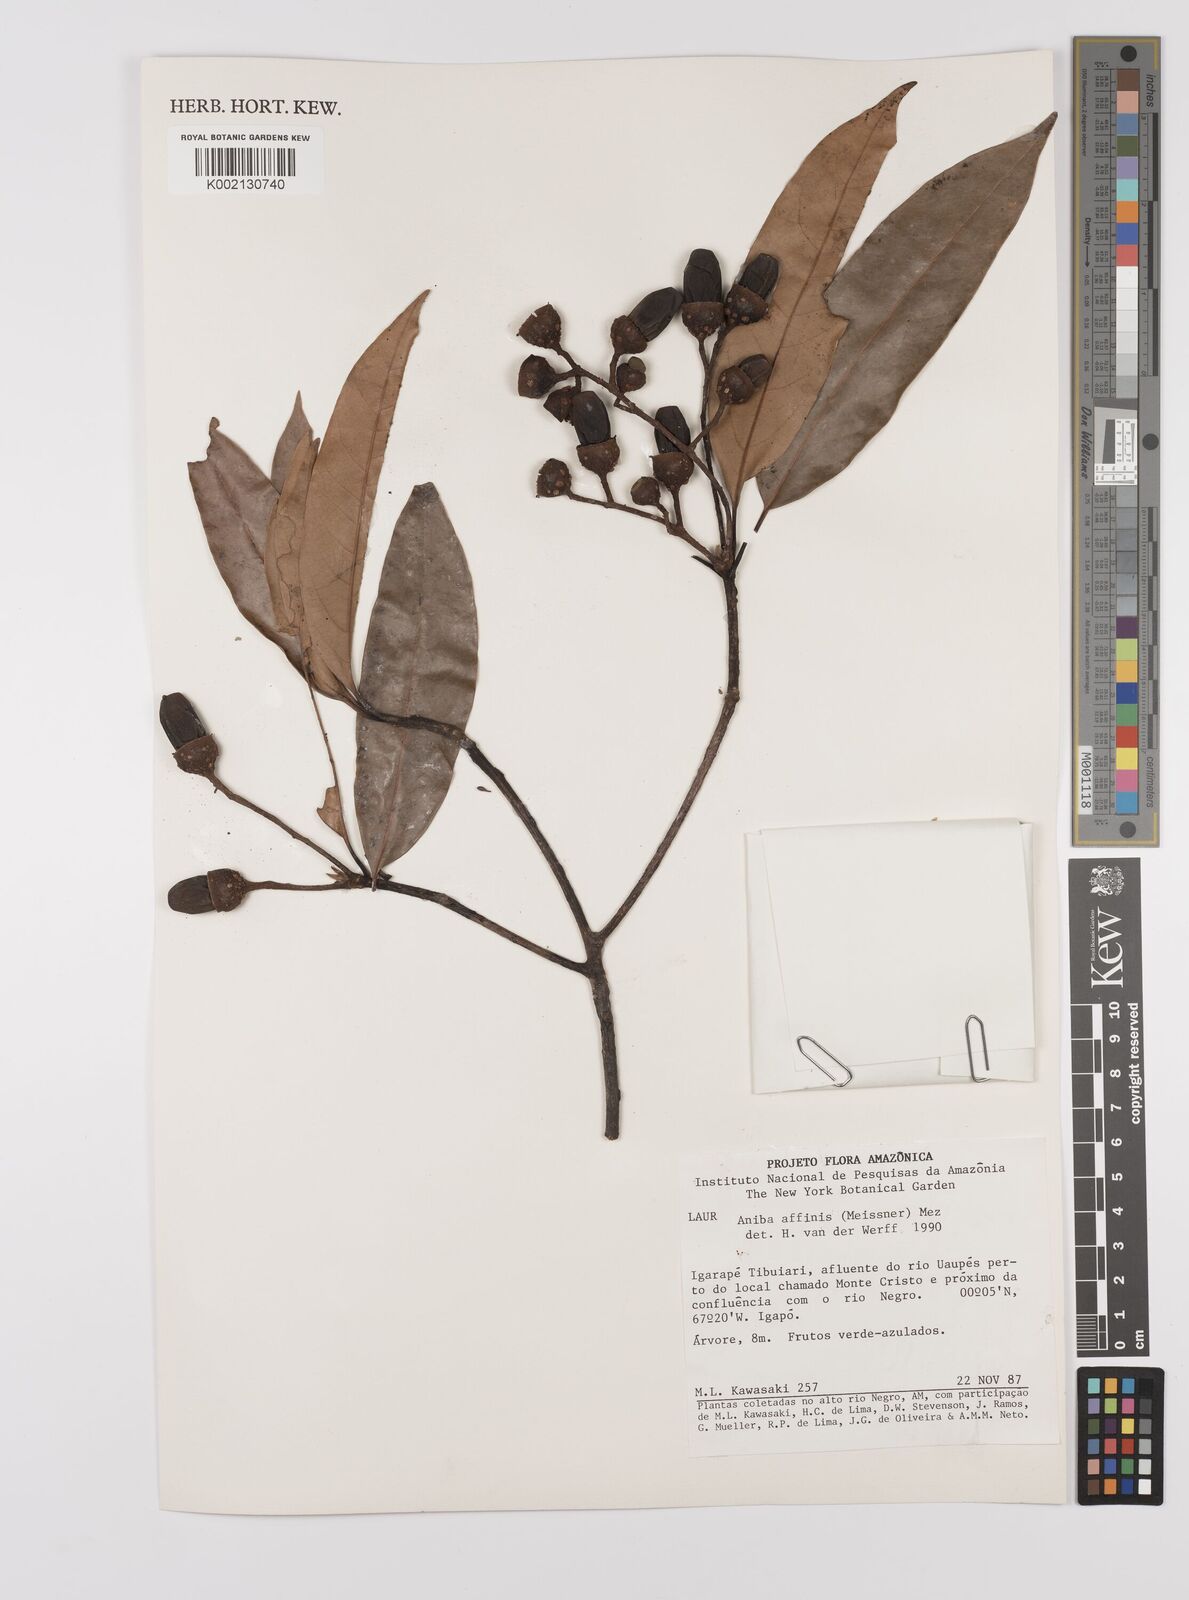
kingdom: Plantae
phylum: Tracheophyta
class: Magnoliopsida
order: Laurales
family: Lauraceae
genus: Aniba
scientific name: Aniba affinis
